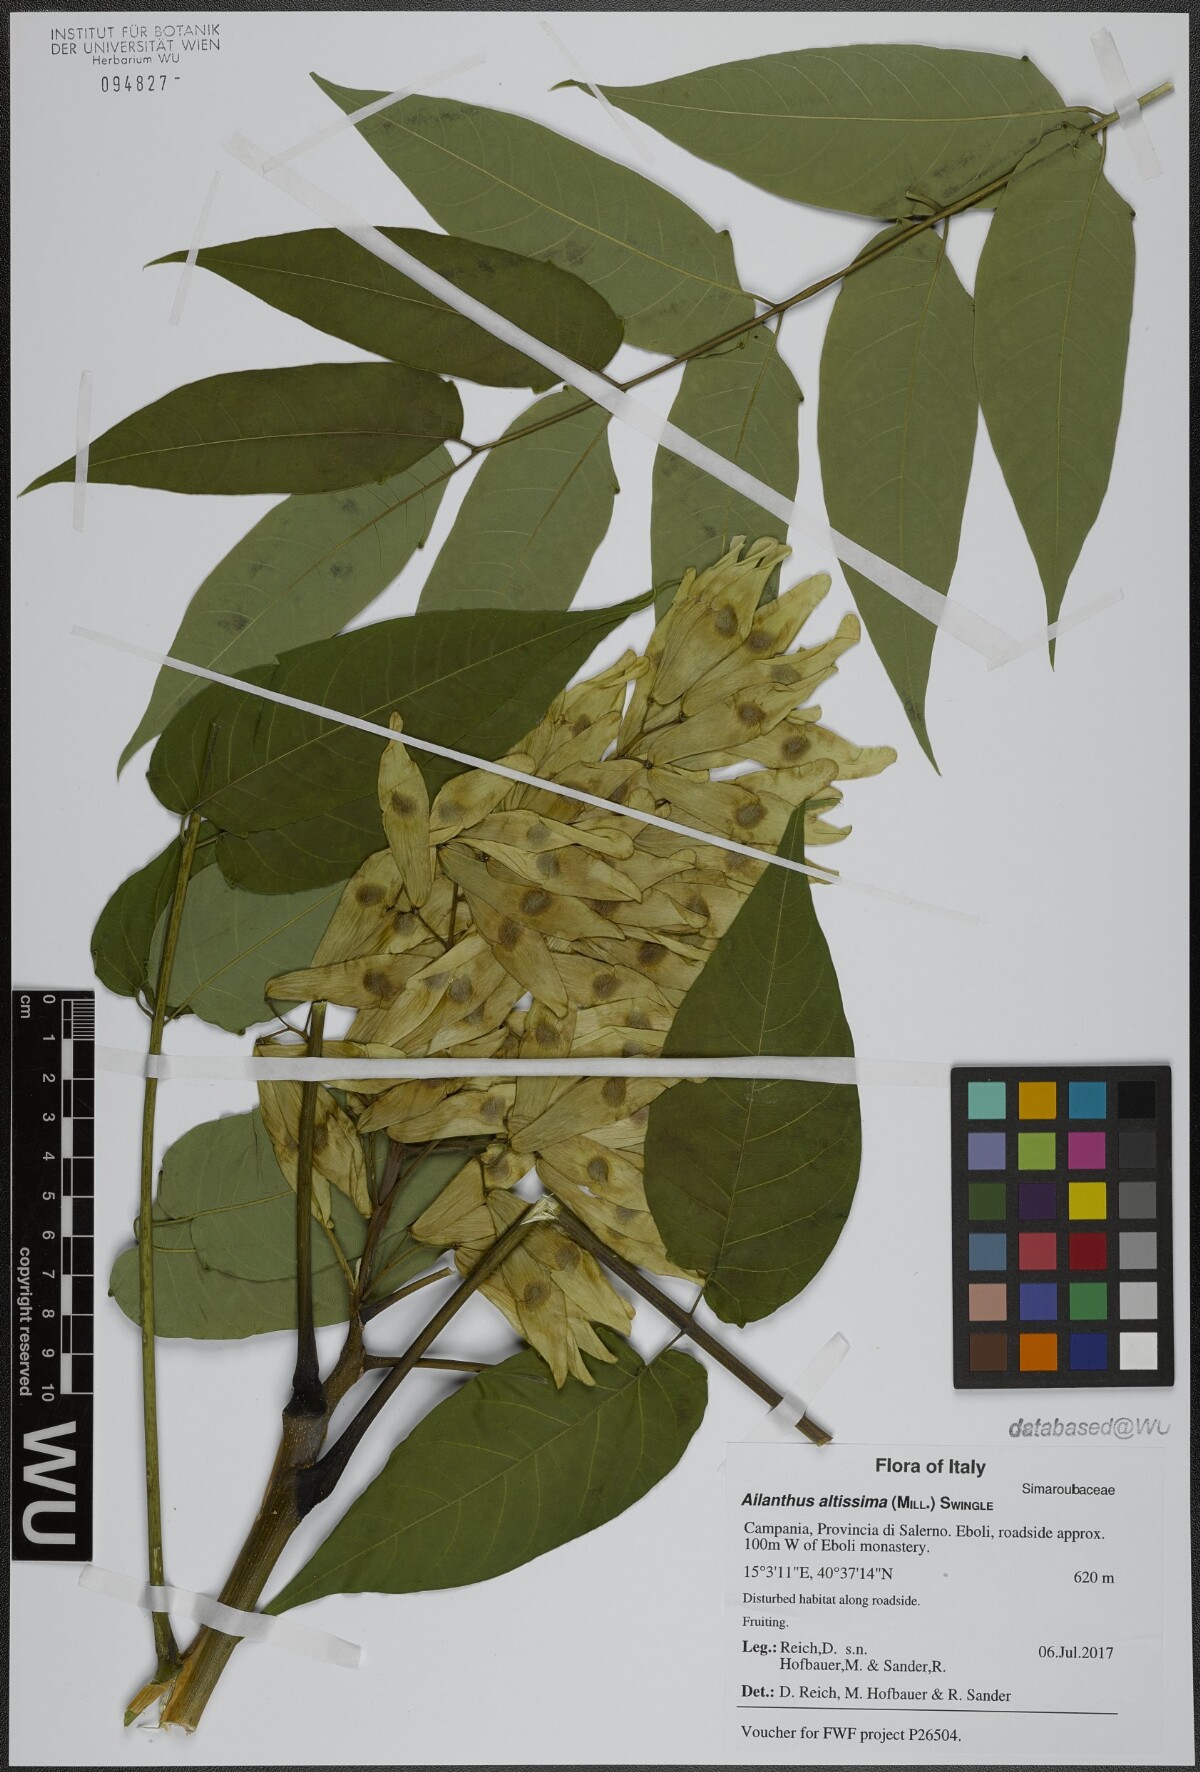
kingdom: Plantae
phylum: Tracheophyta
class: Magnoliopsida
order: Sapindales
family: Simaroubaceae
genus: Ailanthus
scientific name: Ailanthus altissima
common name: Tree-of-heaven
